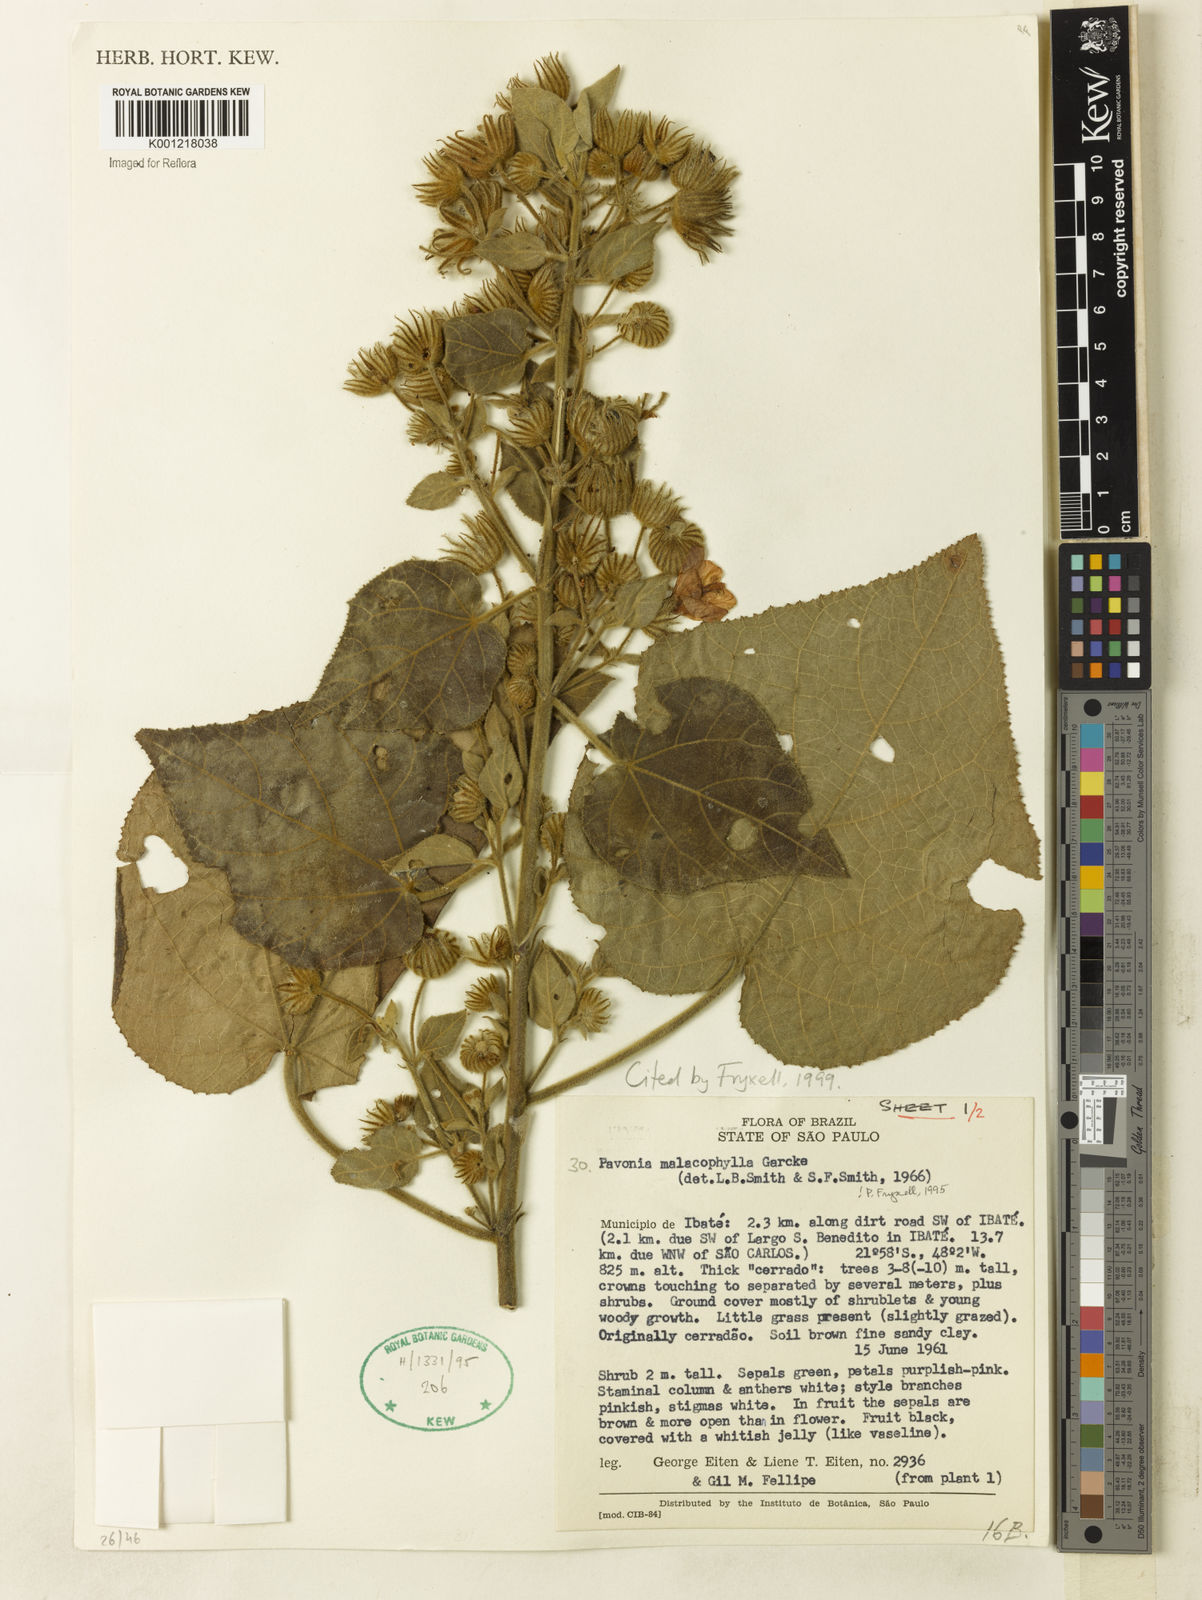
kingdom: Plantae
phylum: Tracheophyta
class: Magnoliopsida
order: Malvales
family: Malvaceae
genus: Pavonia
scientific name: Pavonia malacophylla
